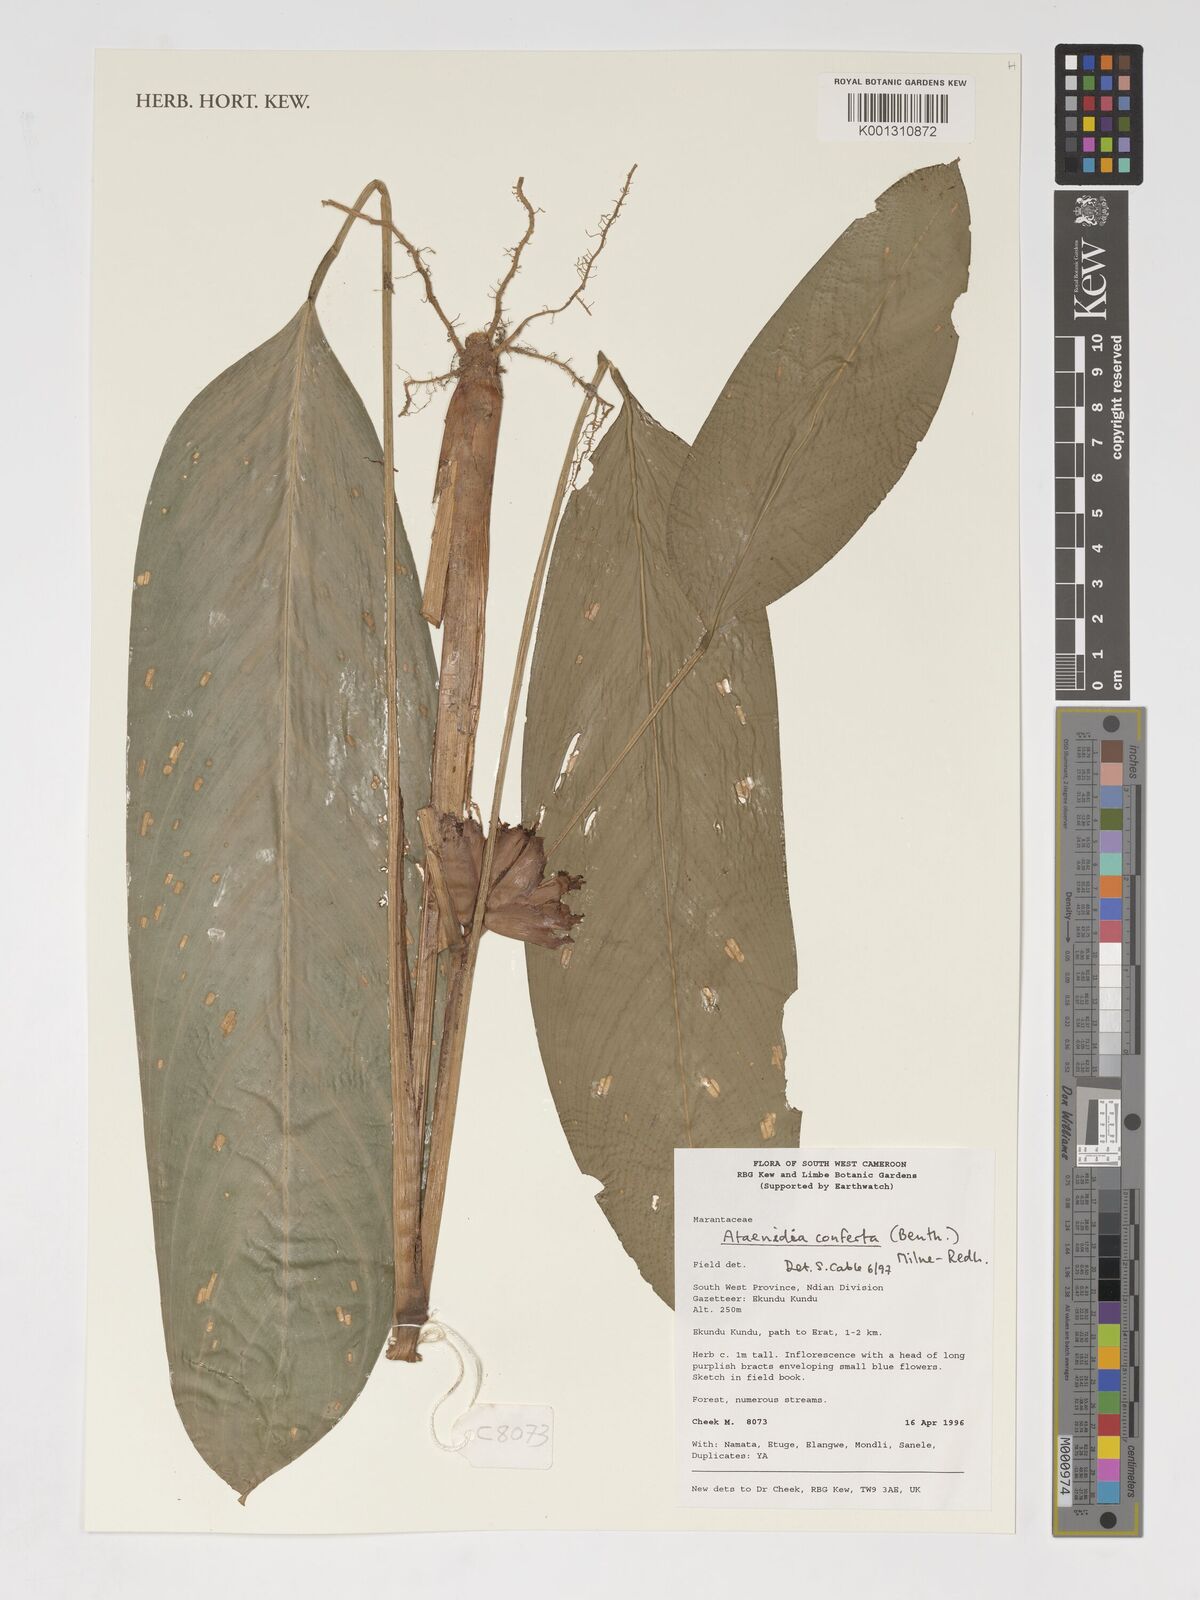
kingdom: Plantae
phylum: Tracheophyta
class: Liliopsida
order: Zingiberales
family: Marantaceae
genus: Marantochloa
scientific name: Marantochloa conferta
